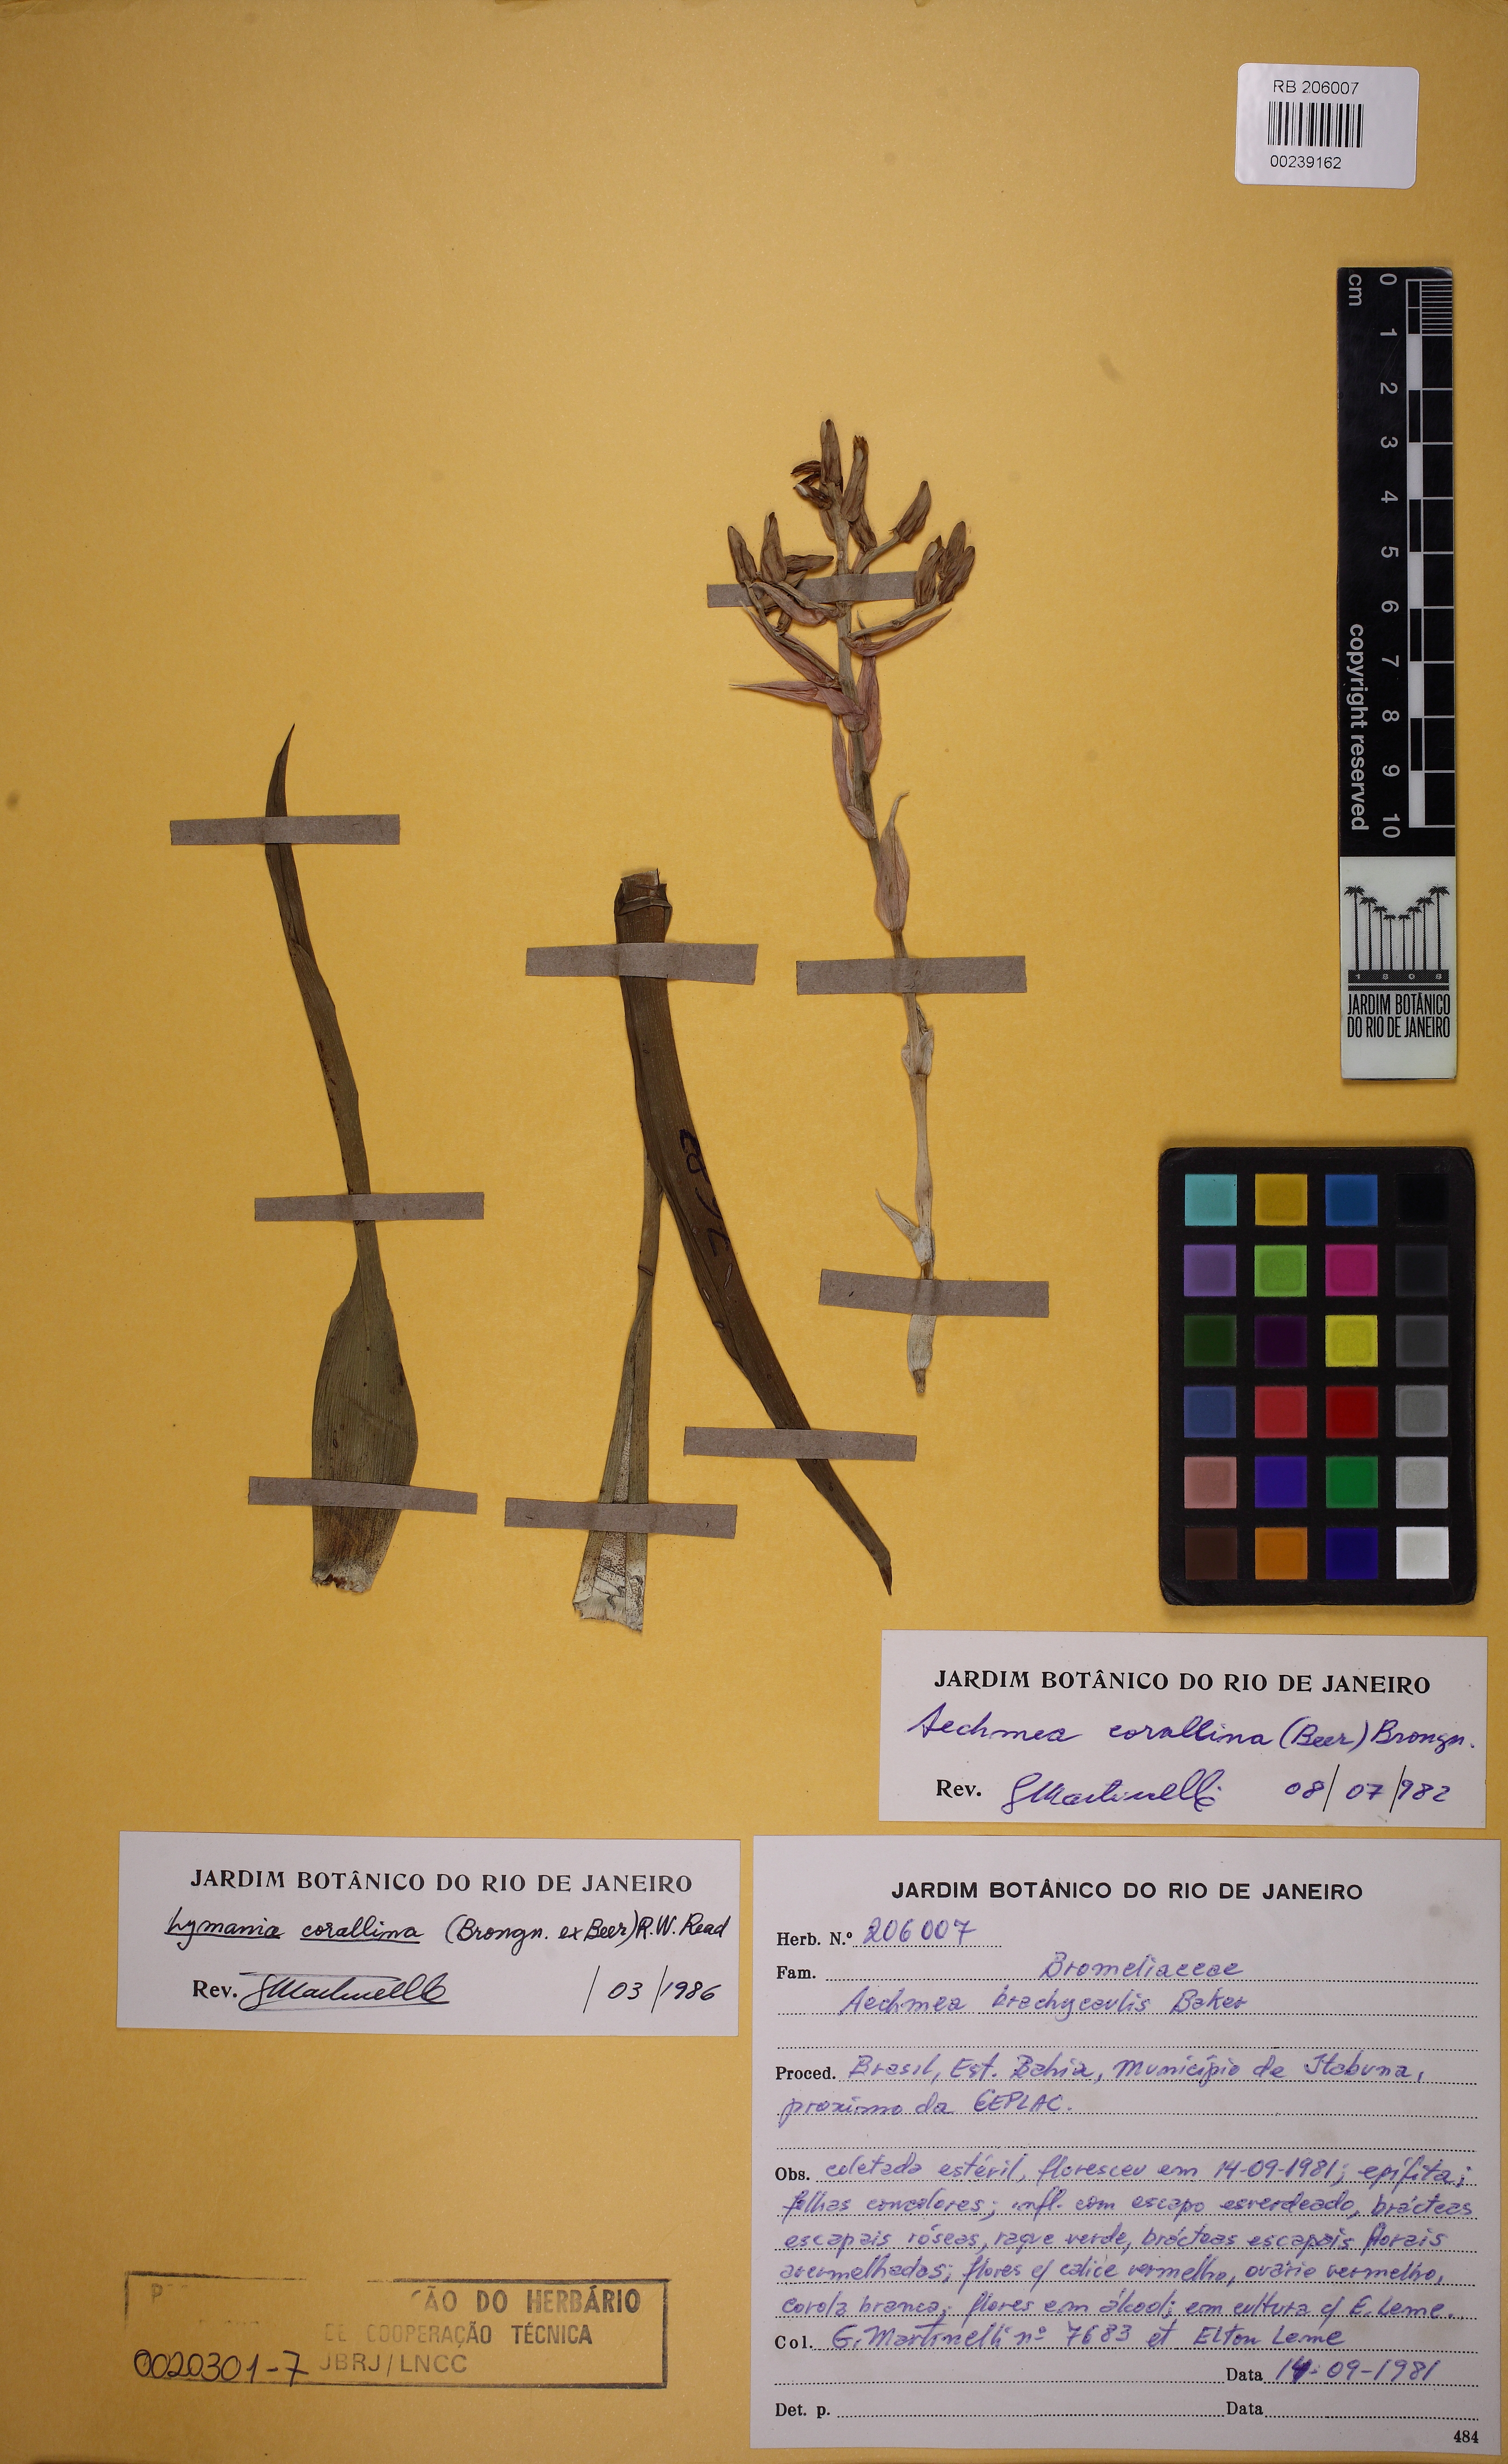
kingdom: Plantae
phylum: Tracheophyta
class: Liliopsida
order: Poales
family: Bromeliaceae
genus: Lymania
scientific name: Lymania corallina
